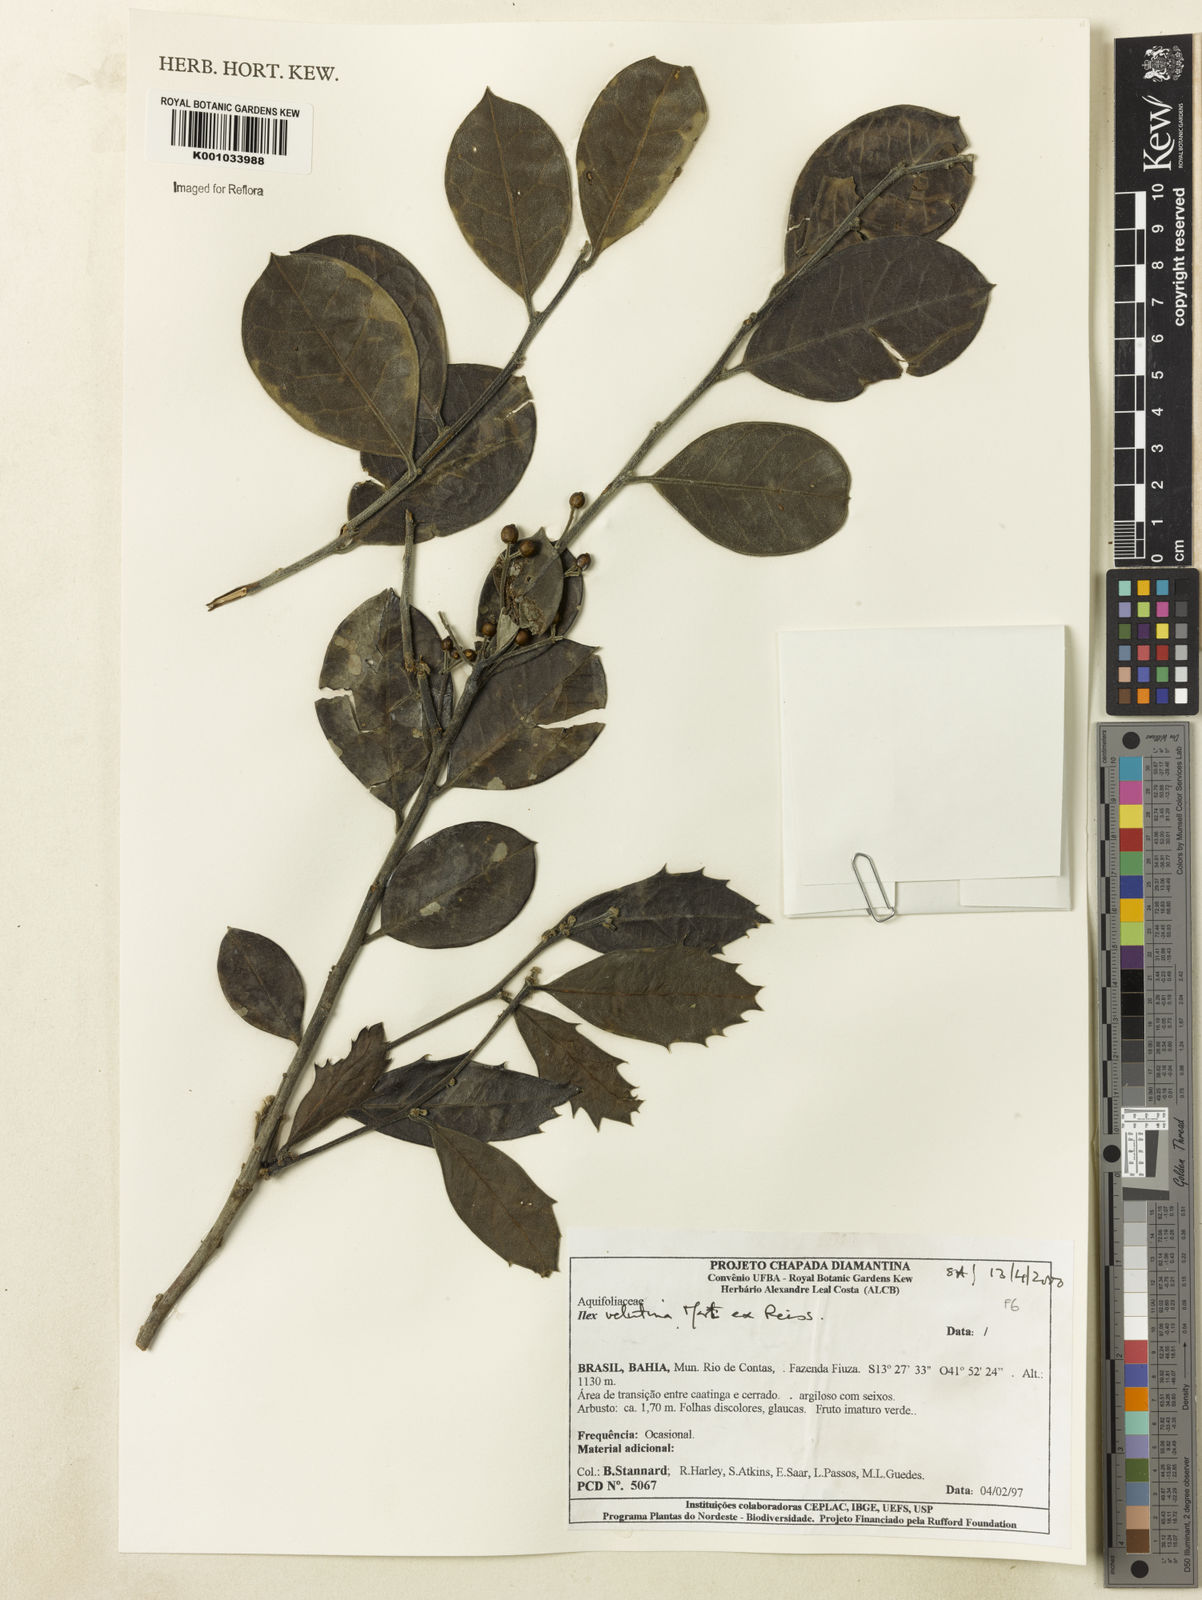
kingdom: Plantae
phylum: Tracheophyta
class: Magnoliopsida
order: Aquifoliales
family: Aquifoliaceae
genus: Ilex
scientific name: Ilex velutina
